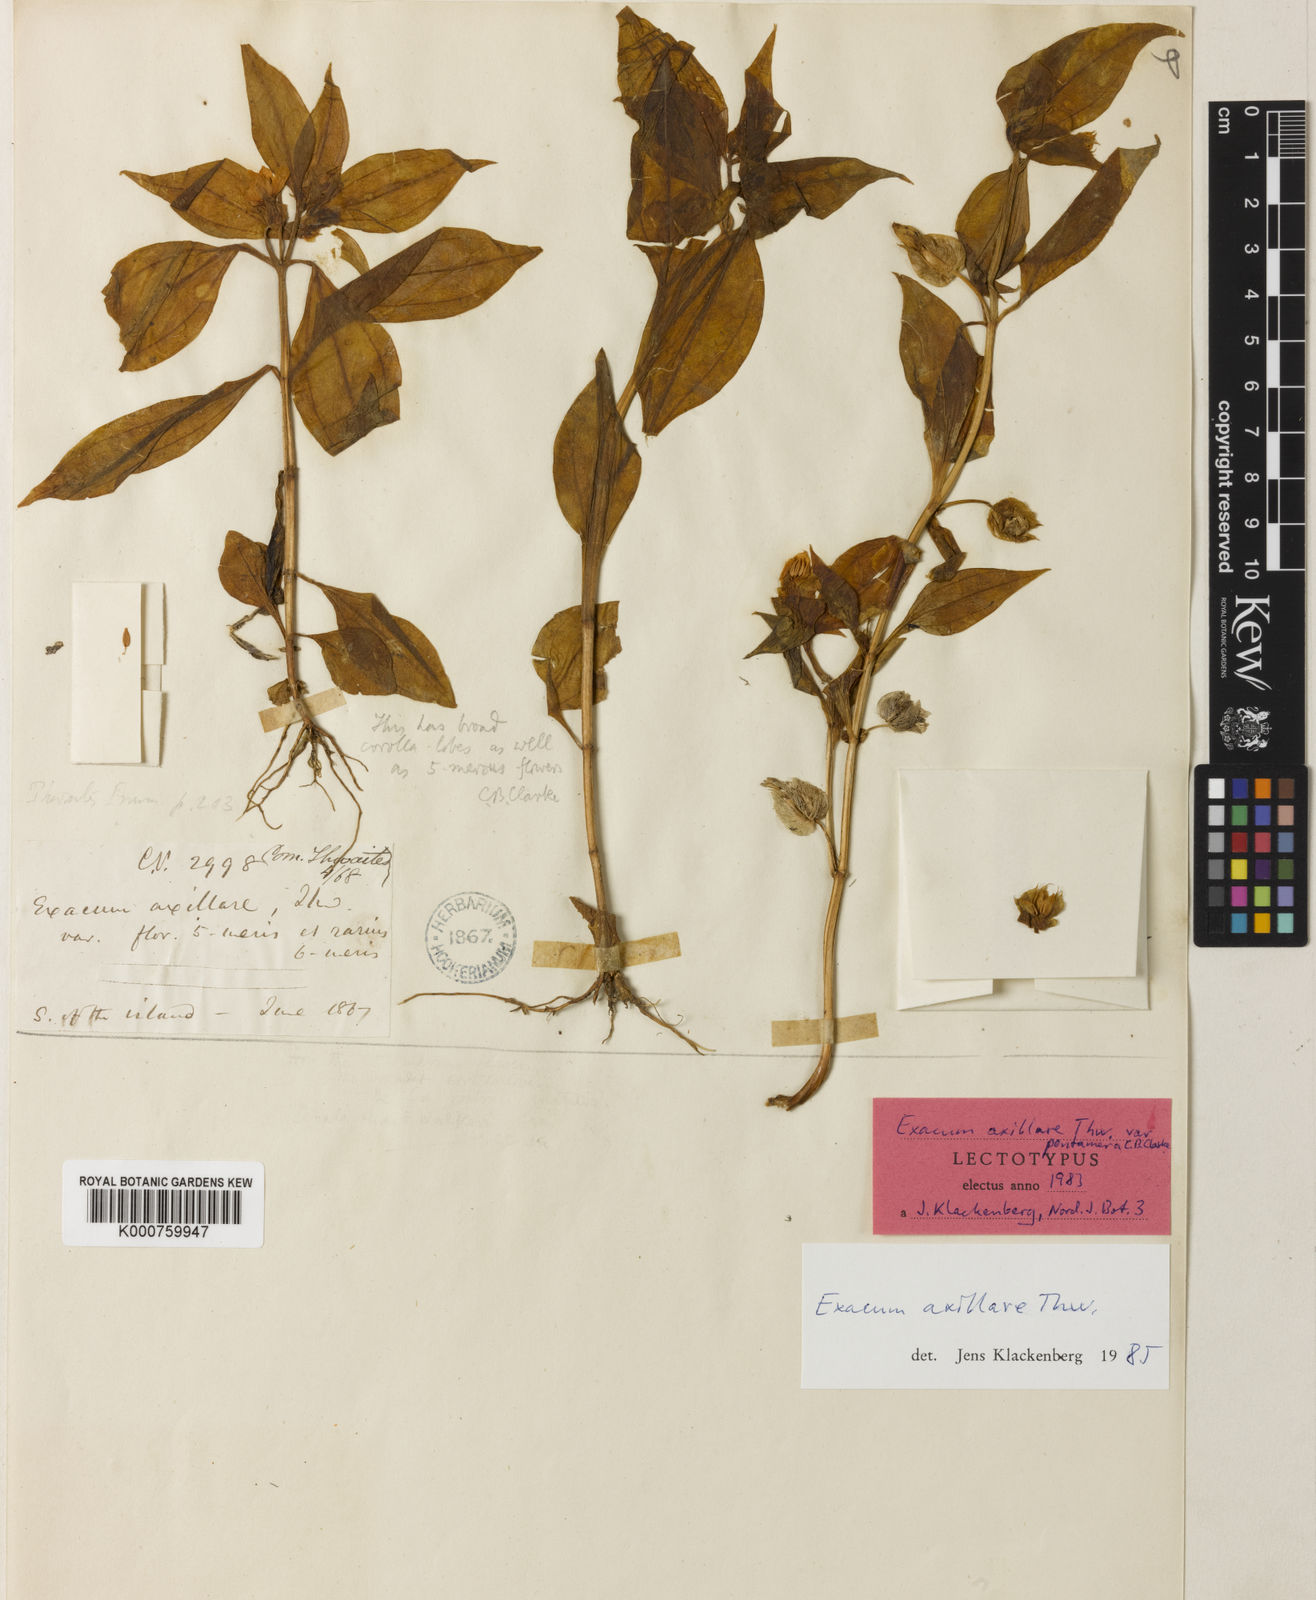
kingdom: Plantae
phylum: Tracheophyta
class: Magnoliopsida
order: Gentianales
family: Gentianaceae
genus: Exacum
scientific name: Exacum axillare
